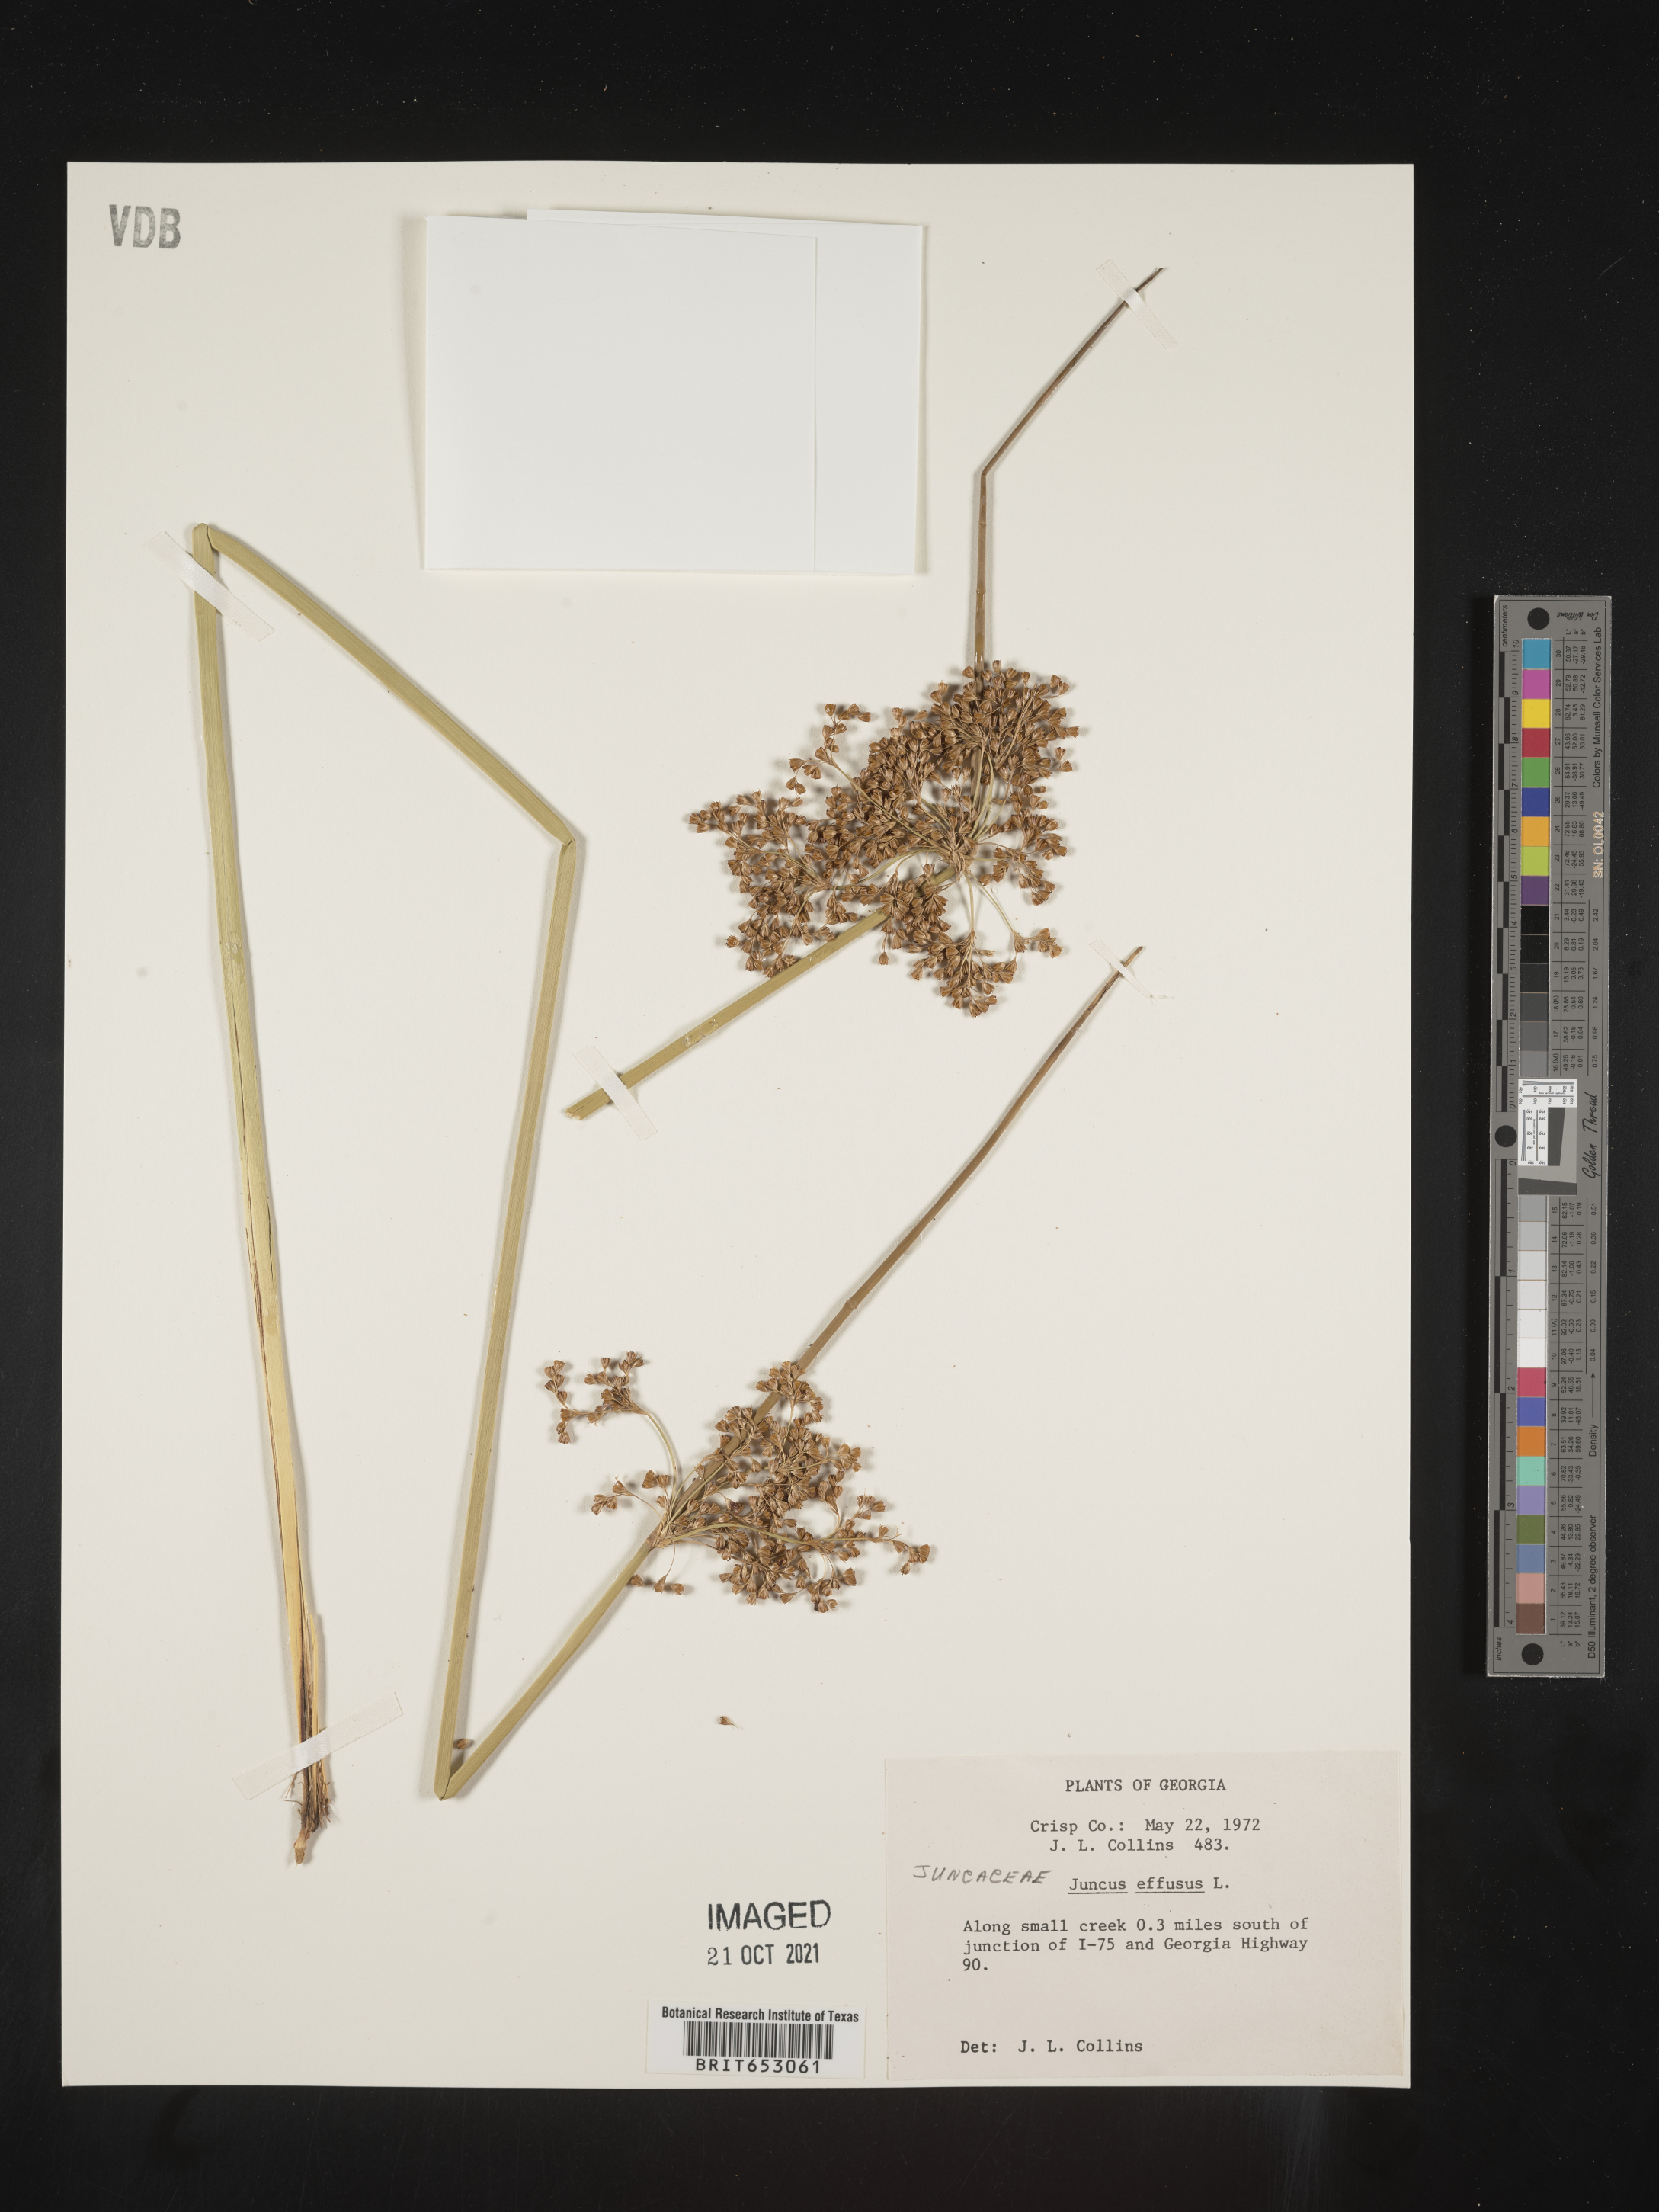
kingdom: Plantae
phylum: Tracheophyta
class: Liliopsida
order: Poales
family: Juncaceae
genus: Juncus
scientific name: Juncus effusus
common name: Soft rush
